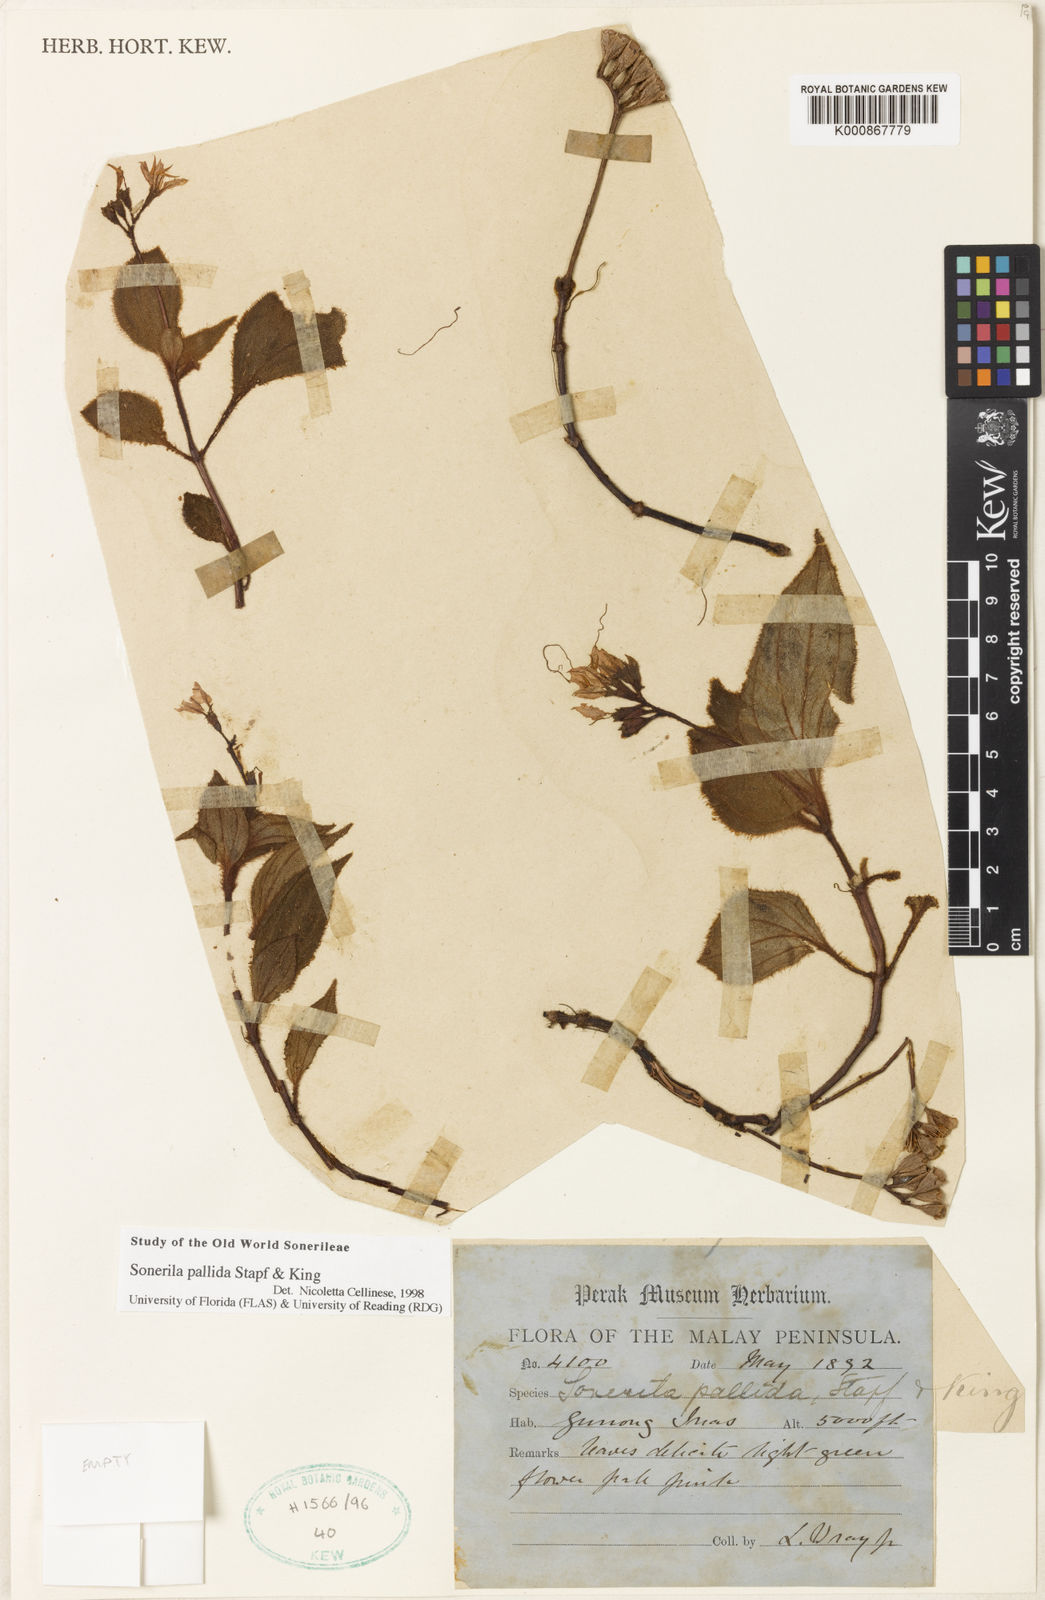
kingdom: Plantae
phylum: Tracheophyta
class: Magnoliopsida
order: Myrtales
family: Melastomataceae
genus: Sonerila
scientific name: Sonerila pallida
